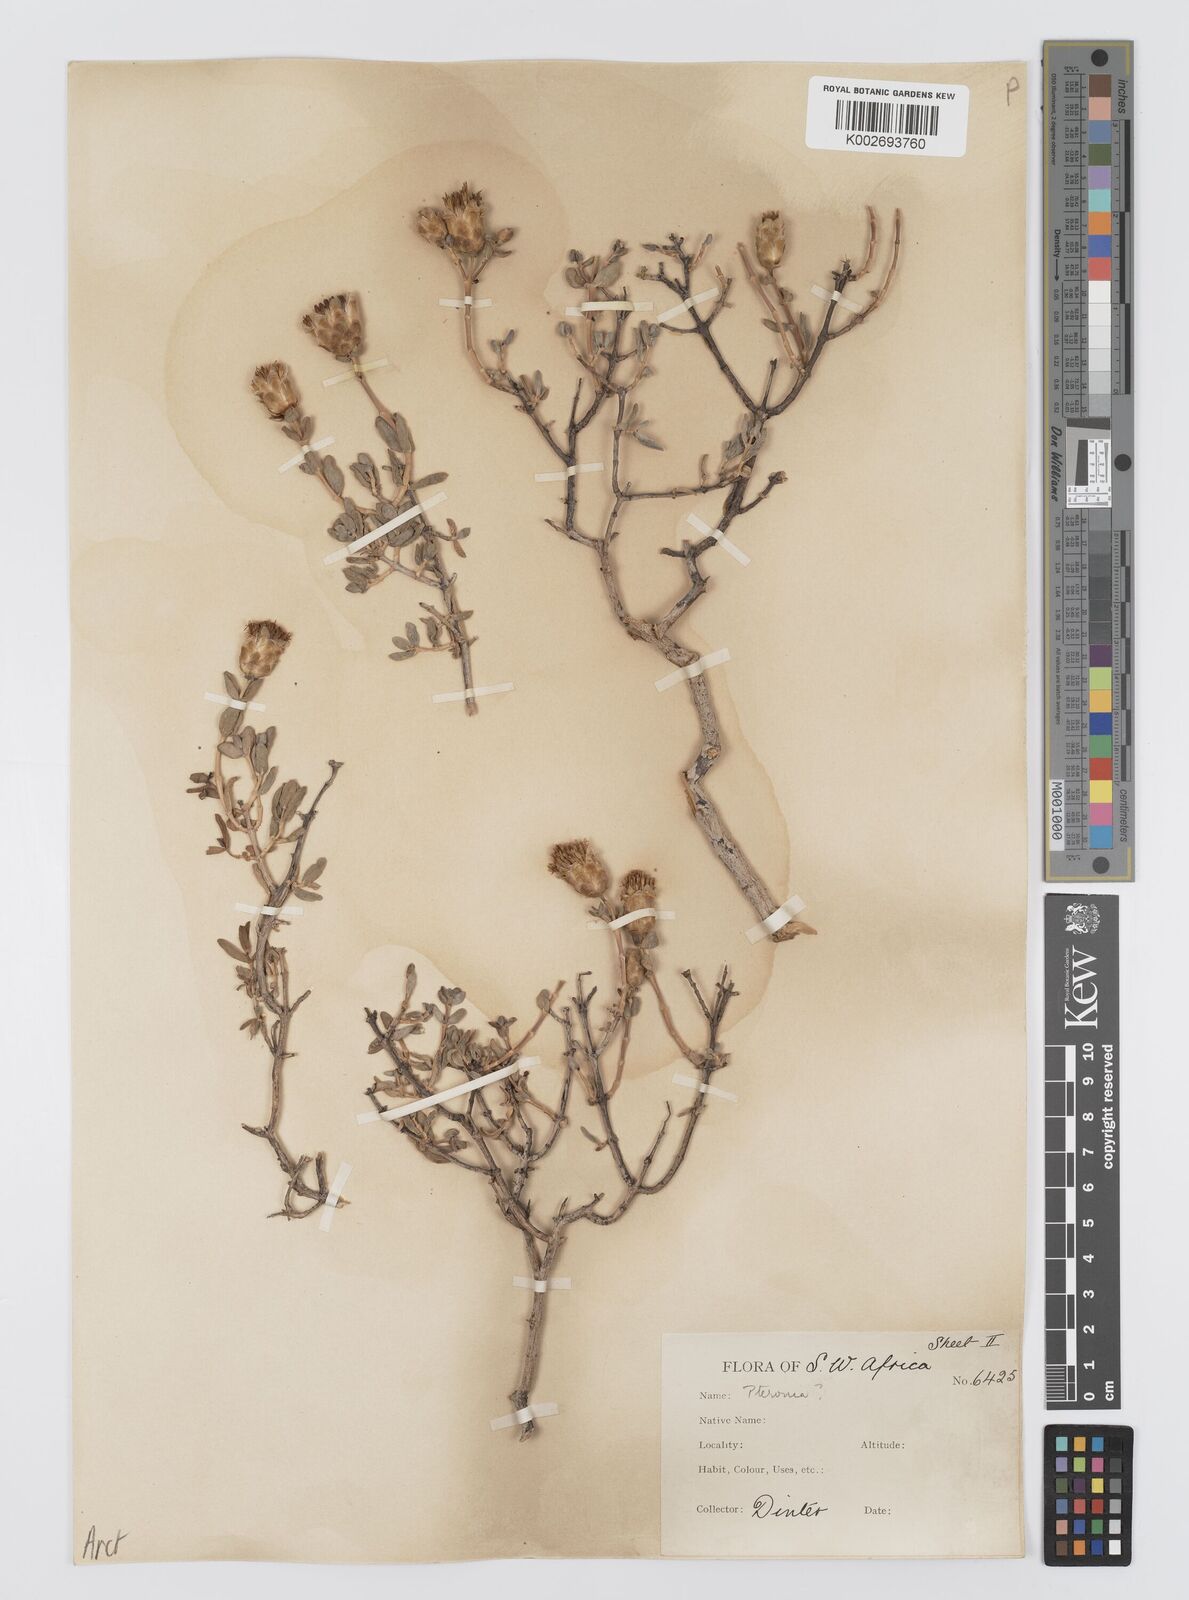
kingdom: Plantae
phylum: Tracheophyta
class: Magnoliopsida
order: Asterales
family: Asteraceae
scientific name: Asteraceae
